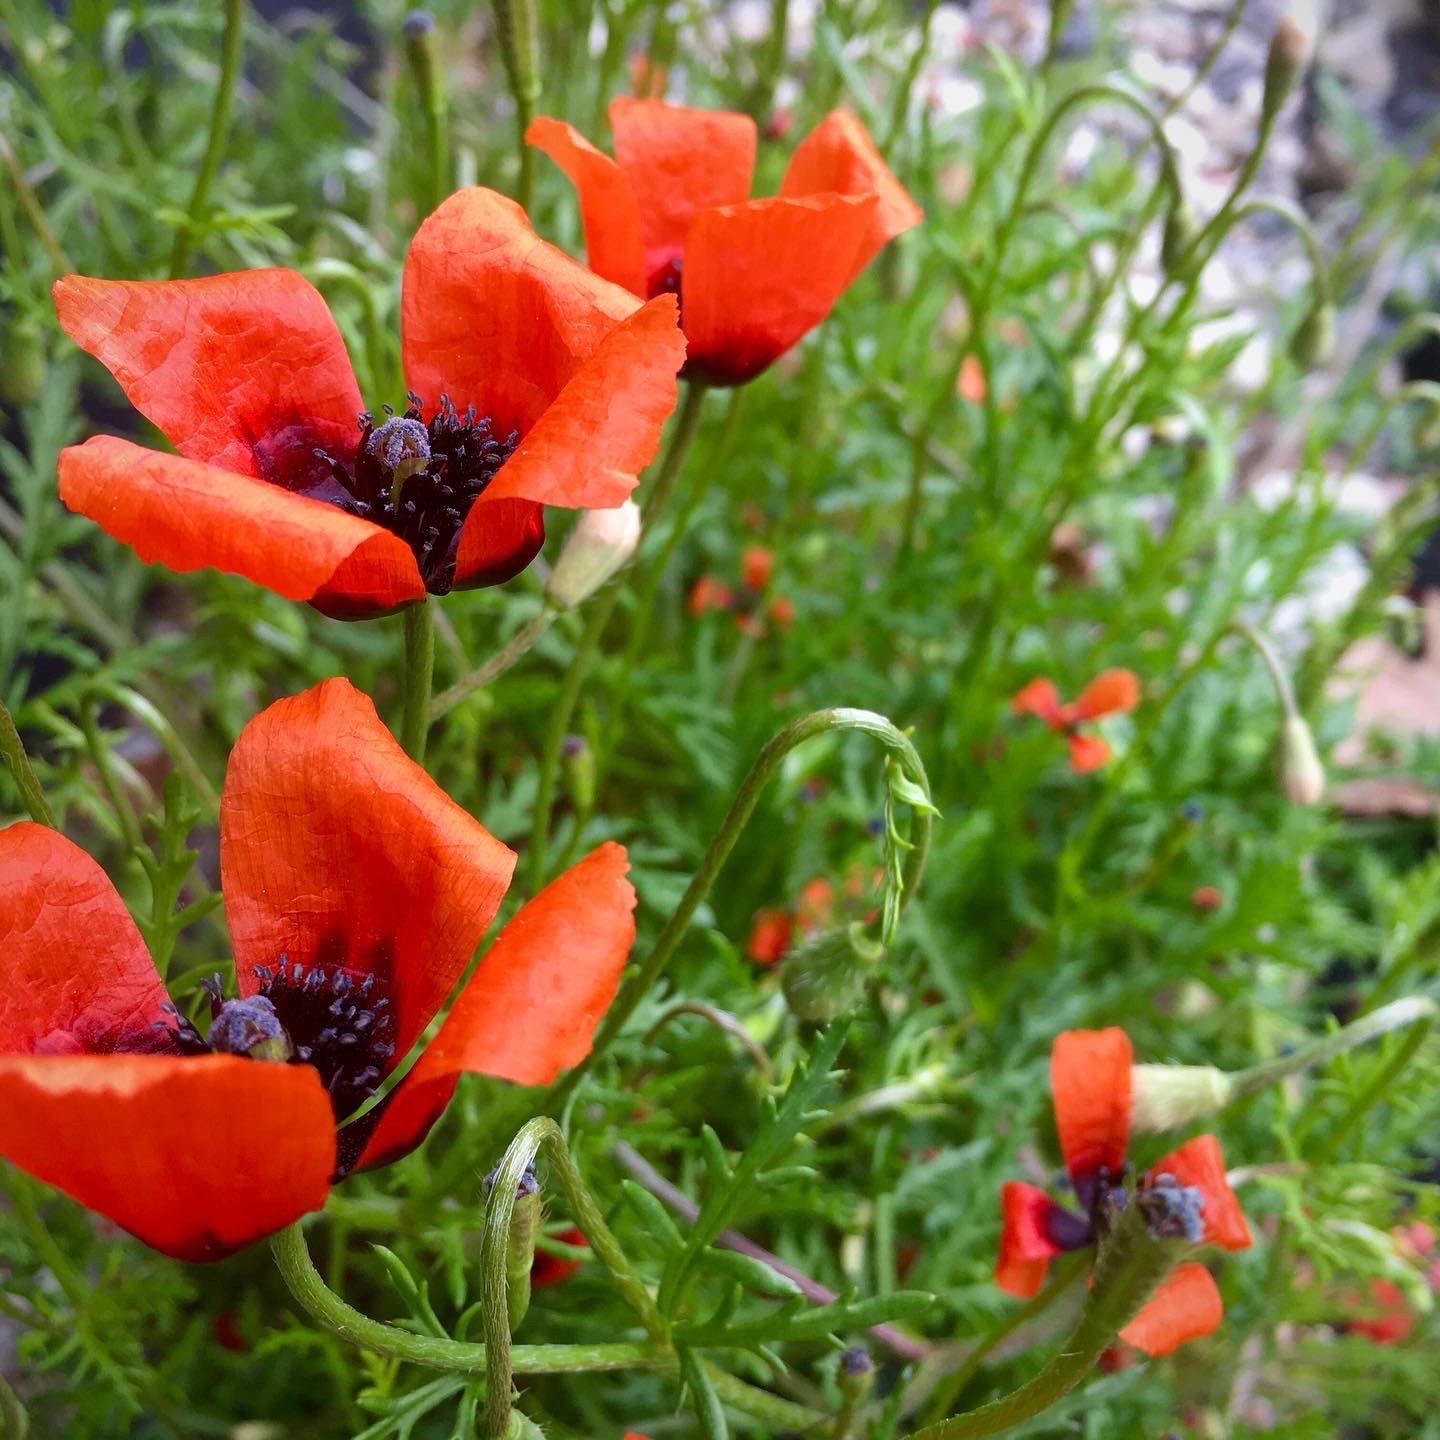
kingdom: Plantae
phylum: Tracheophyta
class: Magnoliopsida
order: Ranunculales
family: Papaveraceae
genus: Roemeria
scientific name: Roemeria argemone
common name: Kølle-valmue
